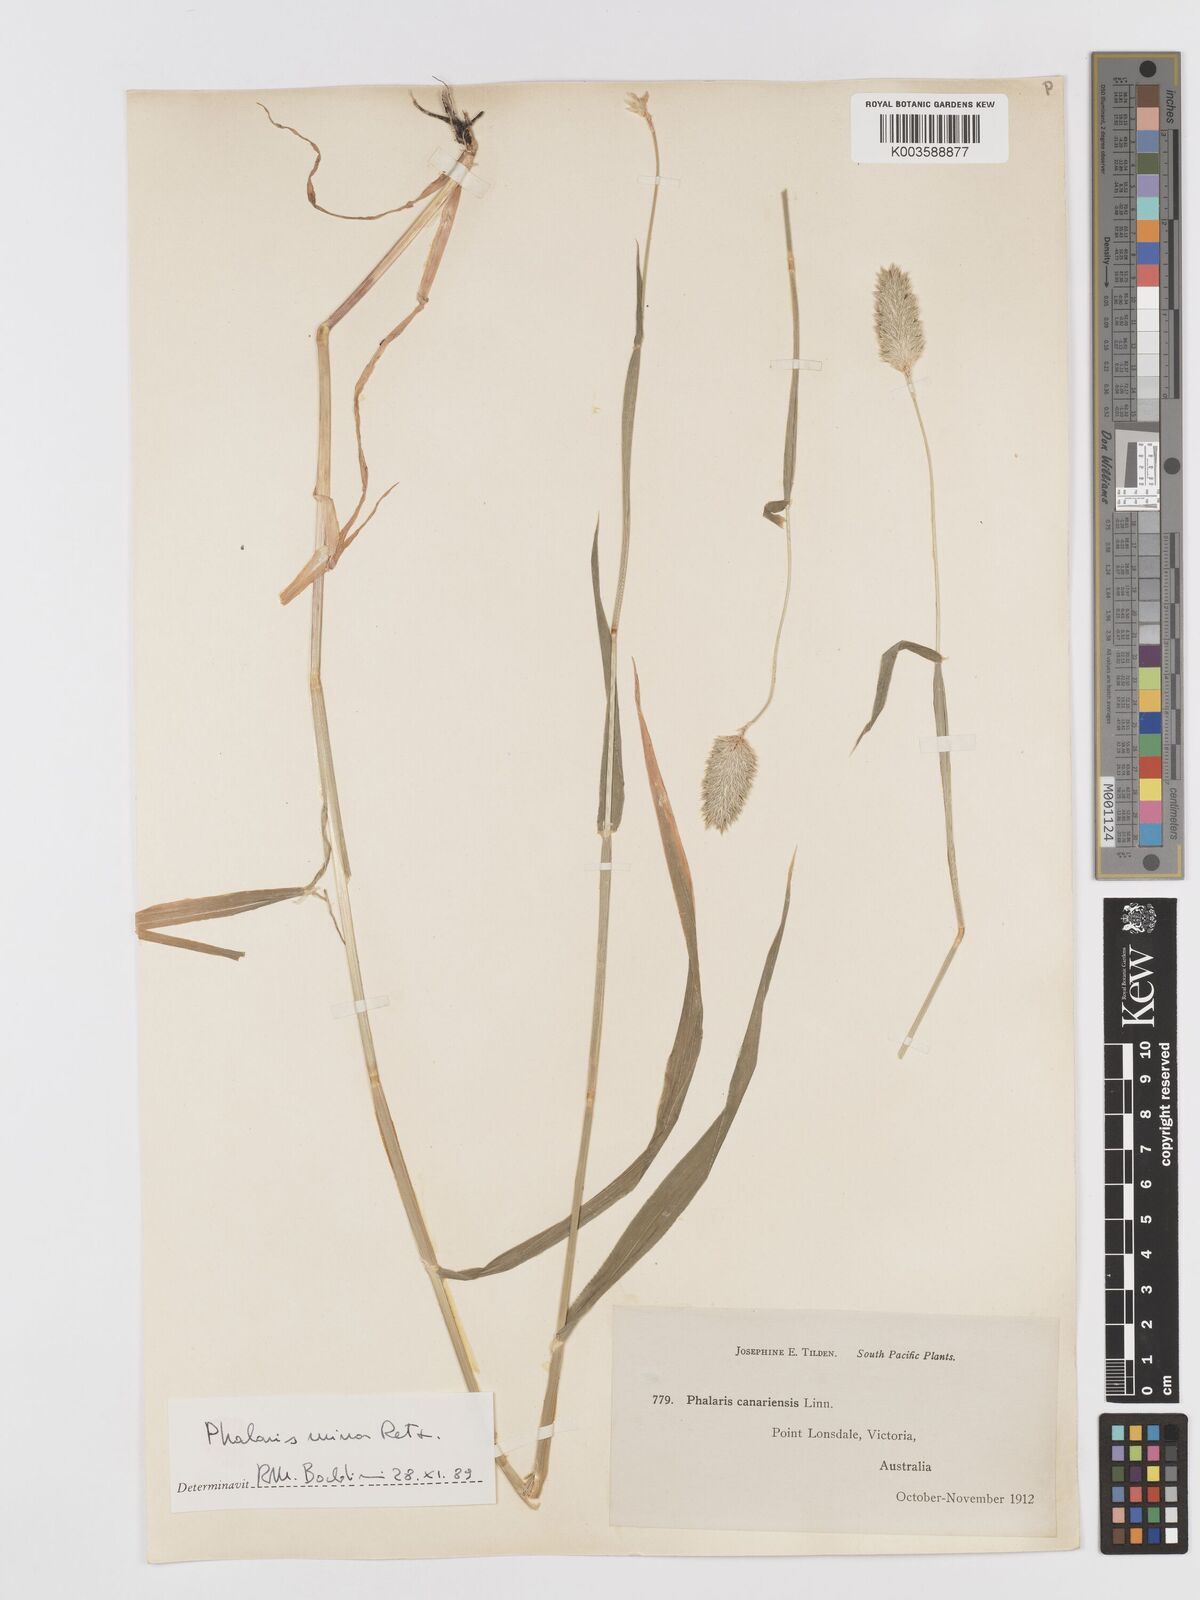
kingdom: Plantae
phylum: Tracheophyta
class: Liliopsida
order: Poales
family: Poaceae
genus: Phalaris
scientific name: Phalaris minor
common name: Littleseed canarygrass
